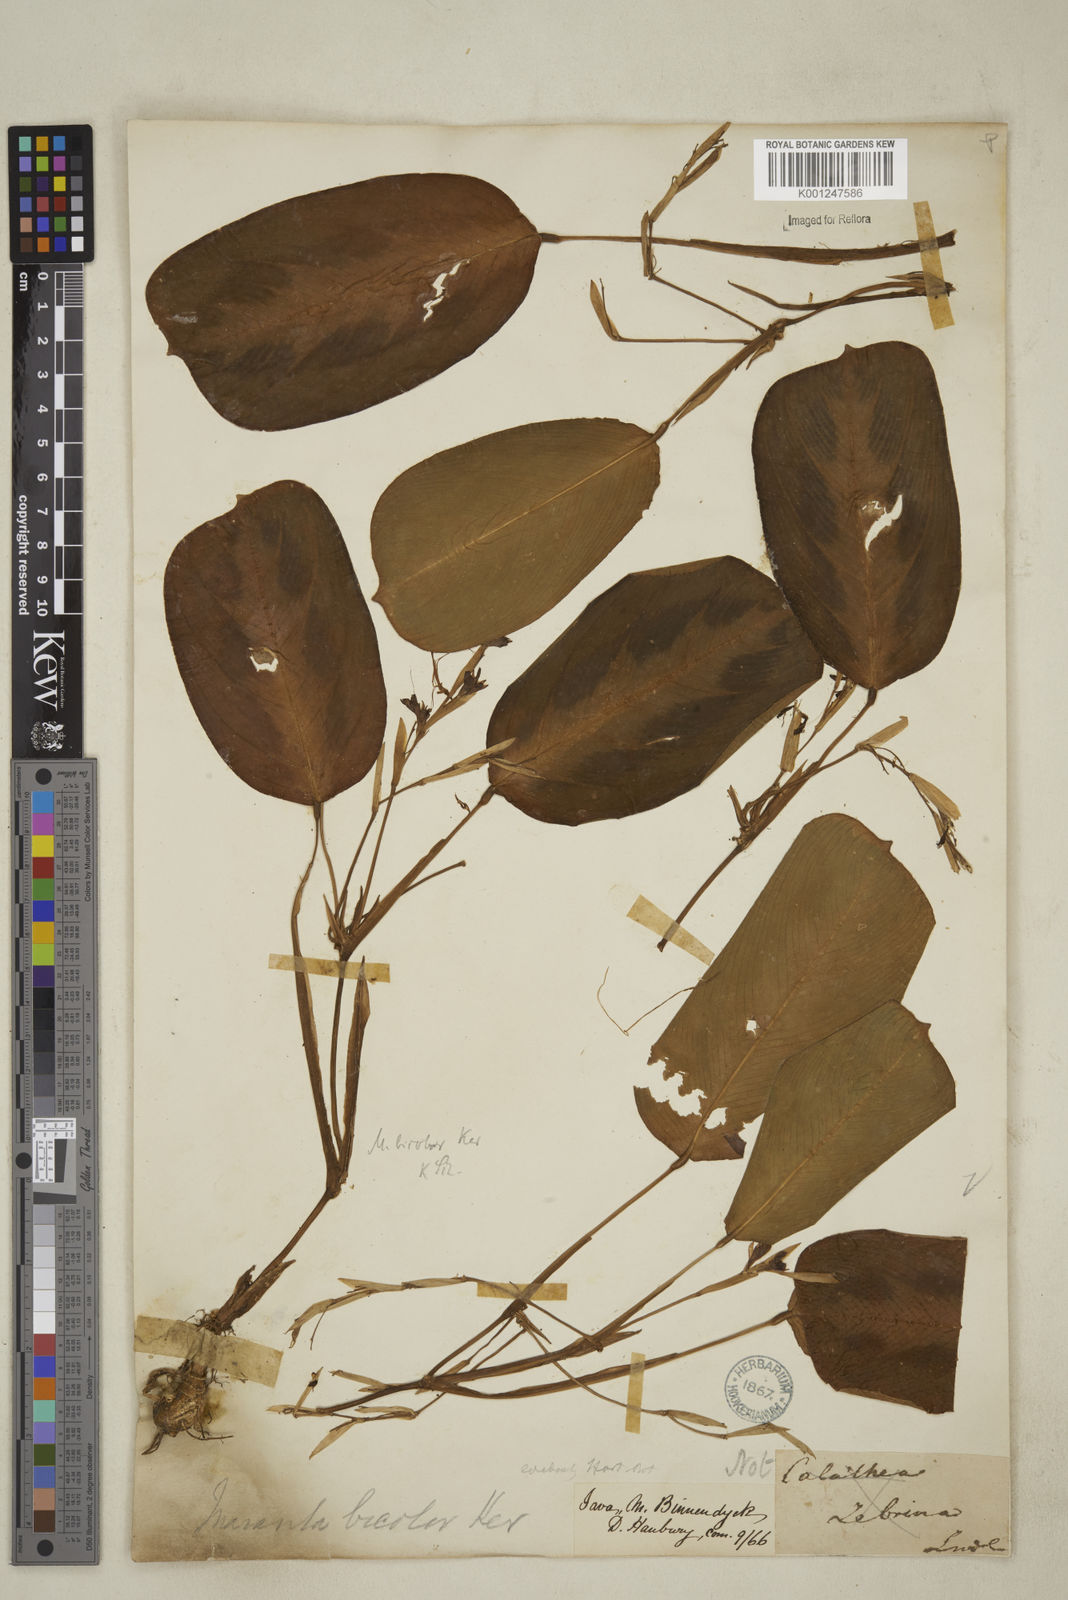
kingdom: Plantae
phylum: Tracheophyta
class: Liliopsida
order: Zingiberales
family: Marantaceae
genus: Maranta
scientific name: Maranta cristata
